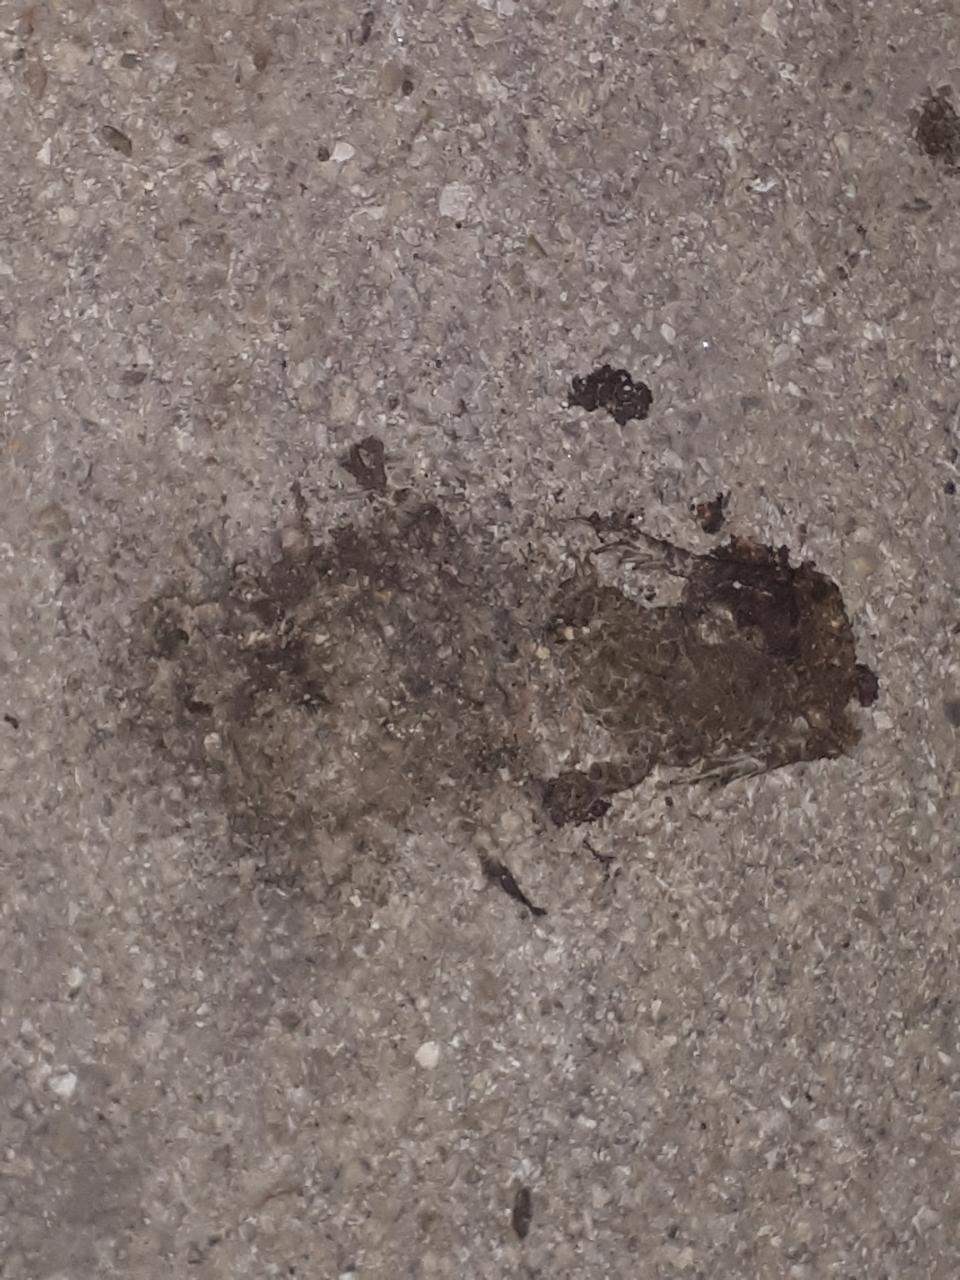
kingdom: Animalia
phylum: Chordata
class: Amphibia
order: Anura
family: Bufonidae
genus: Bufotes
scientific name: Bufotes viridis
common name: European green toad
